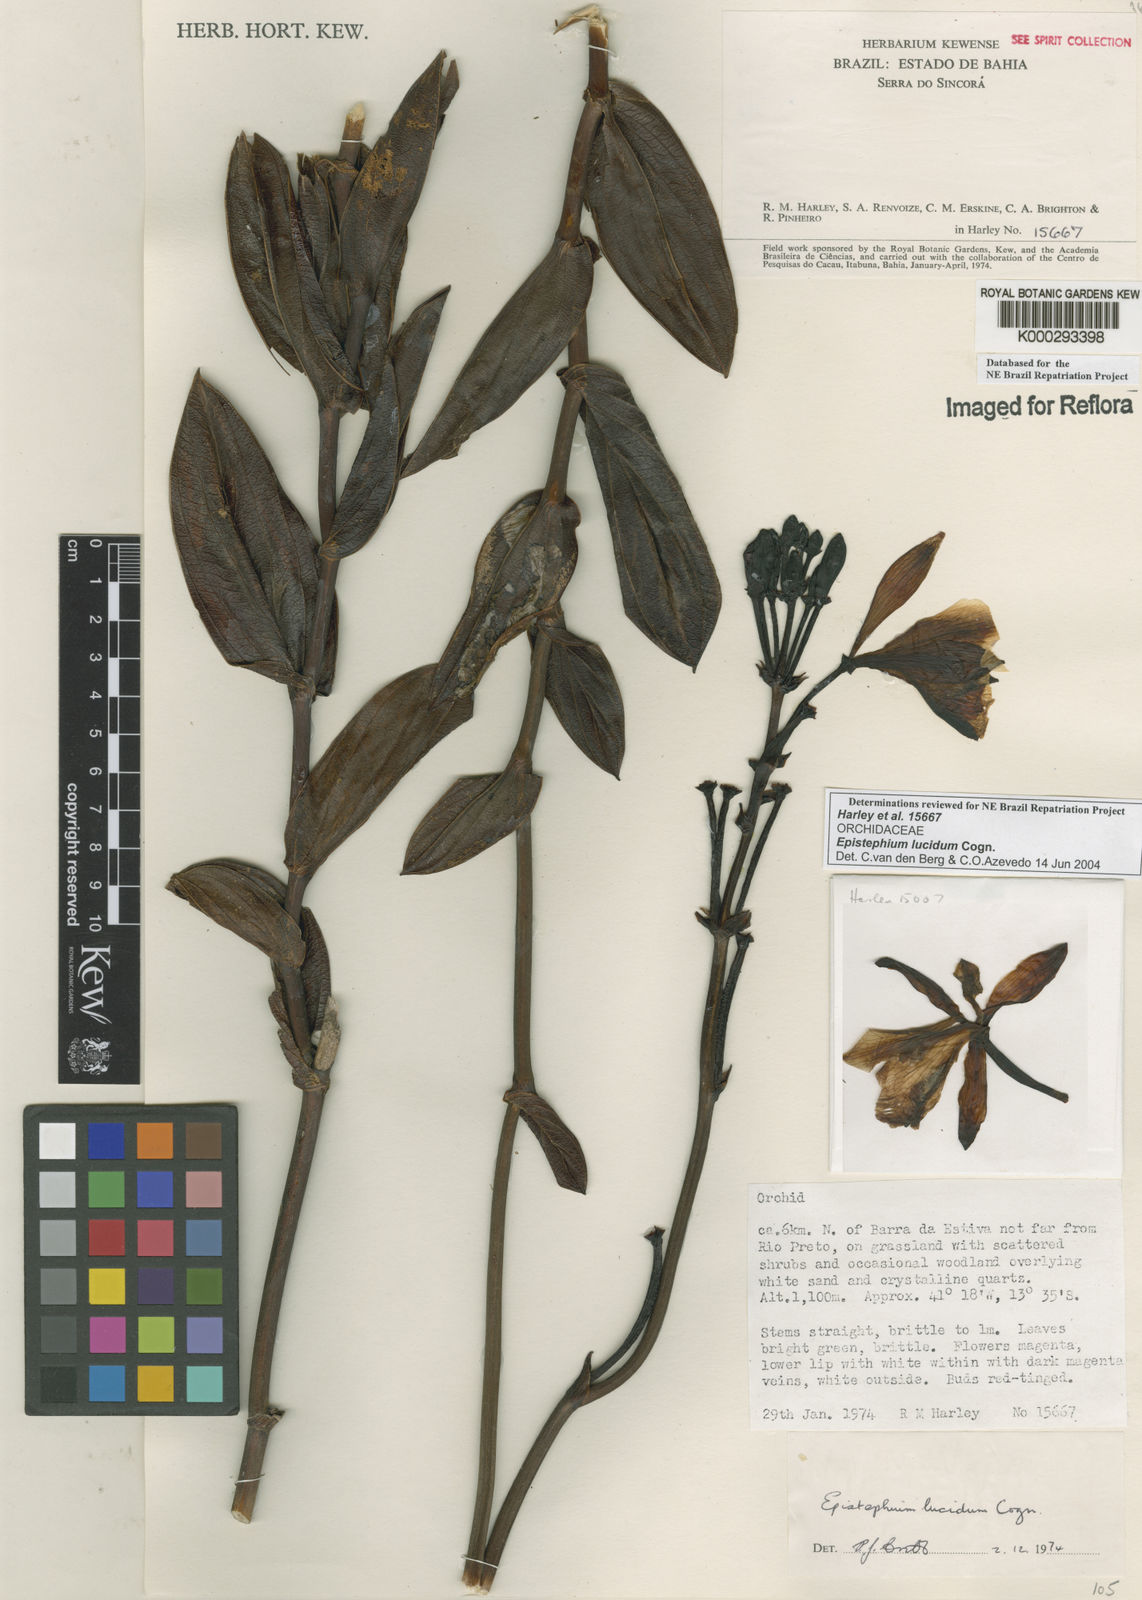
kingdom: Plantae
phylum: Tracheophyta
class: Liliopsida
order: Asparagales
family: Orchidaceae
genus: Epistephium
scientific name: Epistephium williamsii
